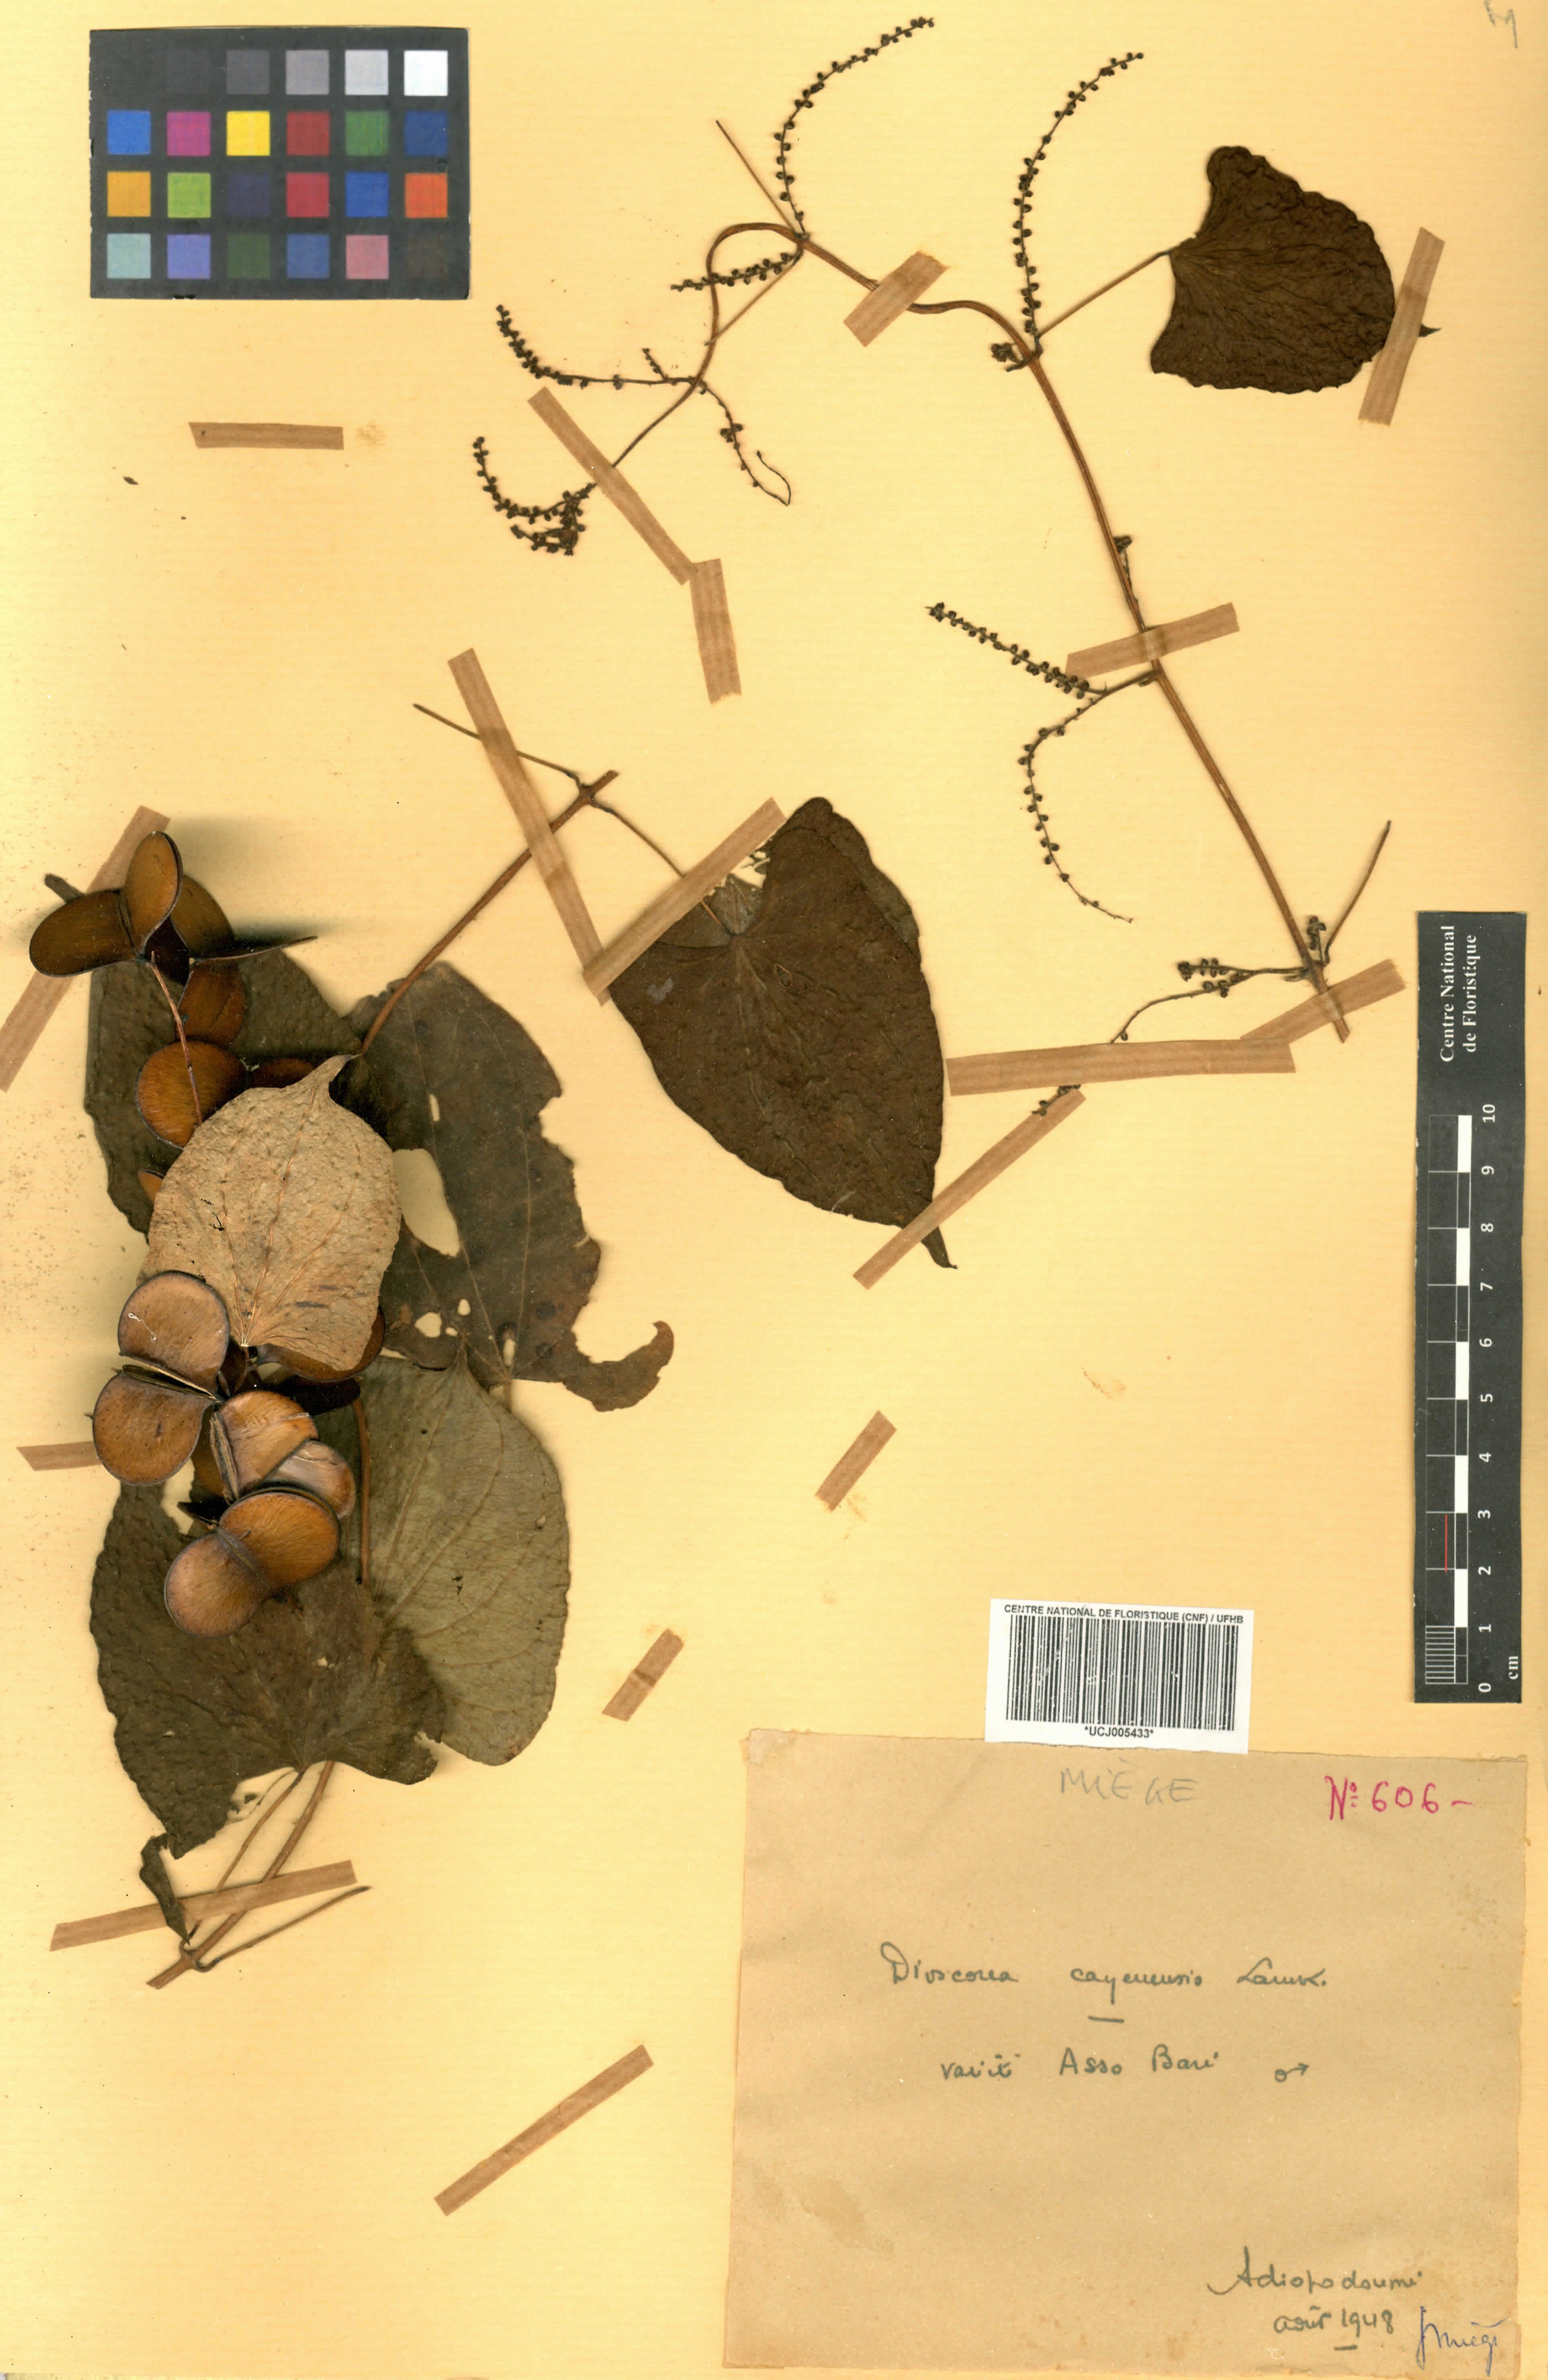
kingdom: Plantae
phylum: Tracheophyta
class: Liliopsida
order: Dioscoreales
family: Dioscoreaceae
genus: Dioscorea
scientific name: Dioscorea cayenensis
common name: Attoto yam
